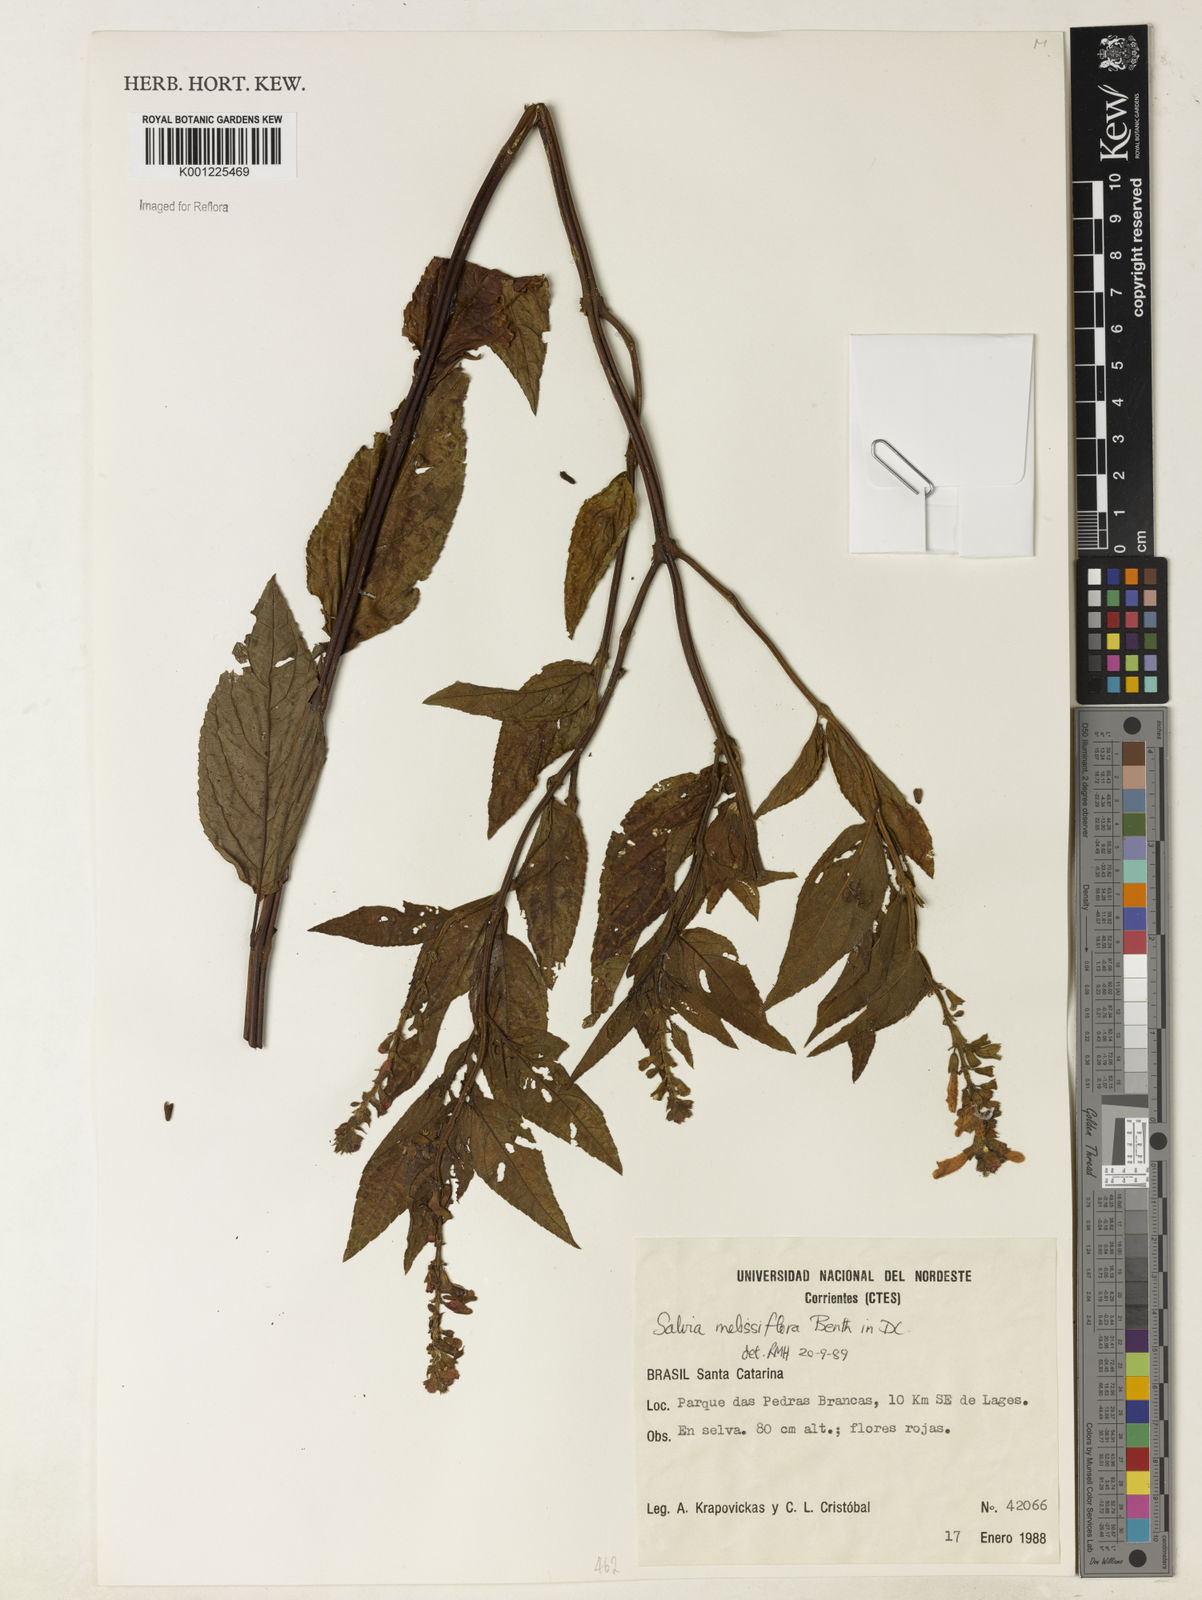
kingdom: Plantae
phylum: Tracheophyta
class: Magnoliopsida
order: Lamiales
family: Lamiaceae
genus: Salvia
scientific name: Salvia melissiflora
